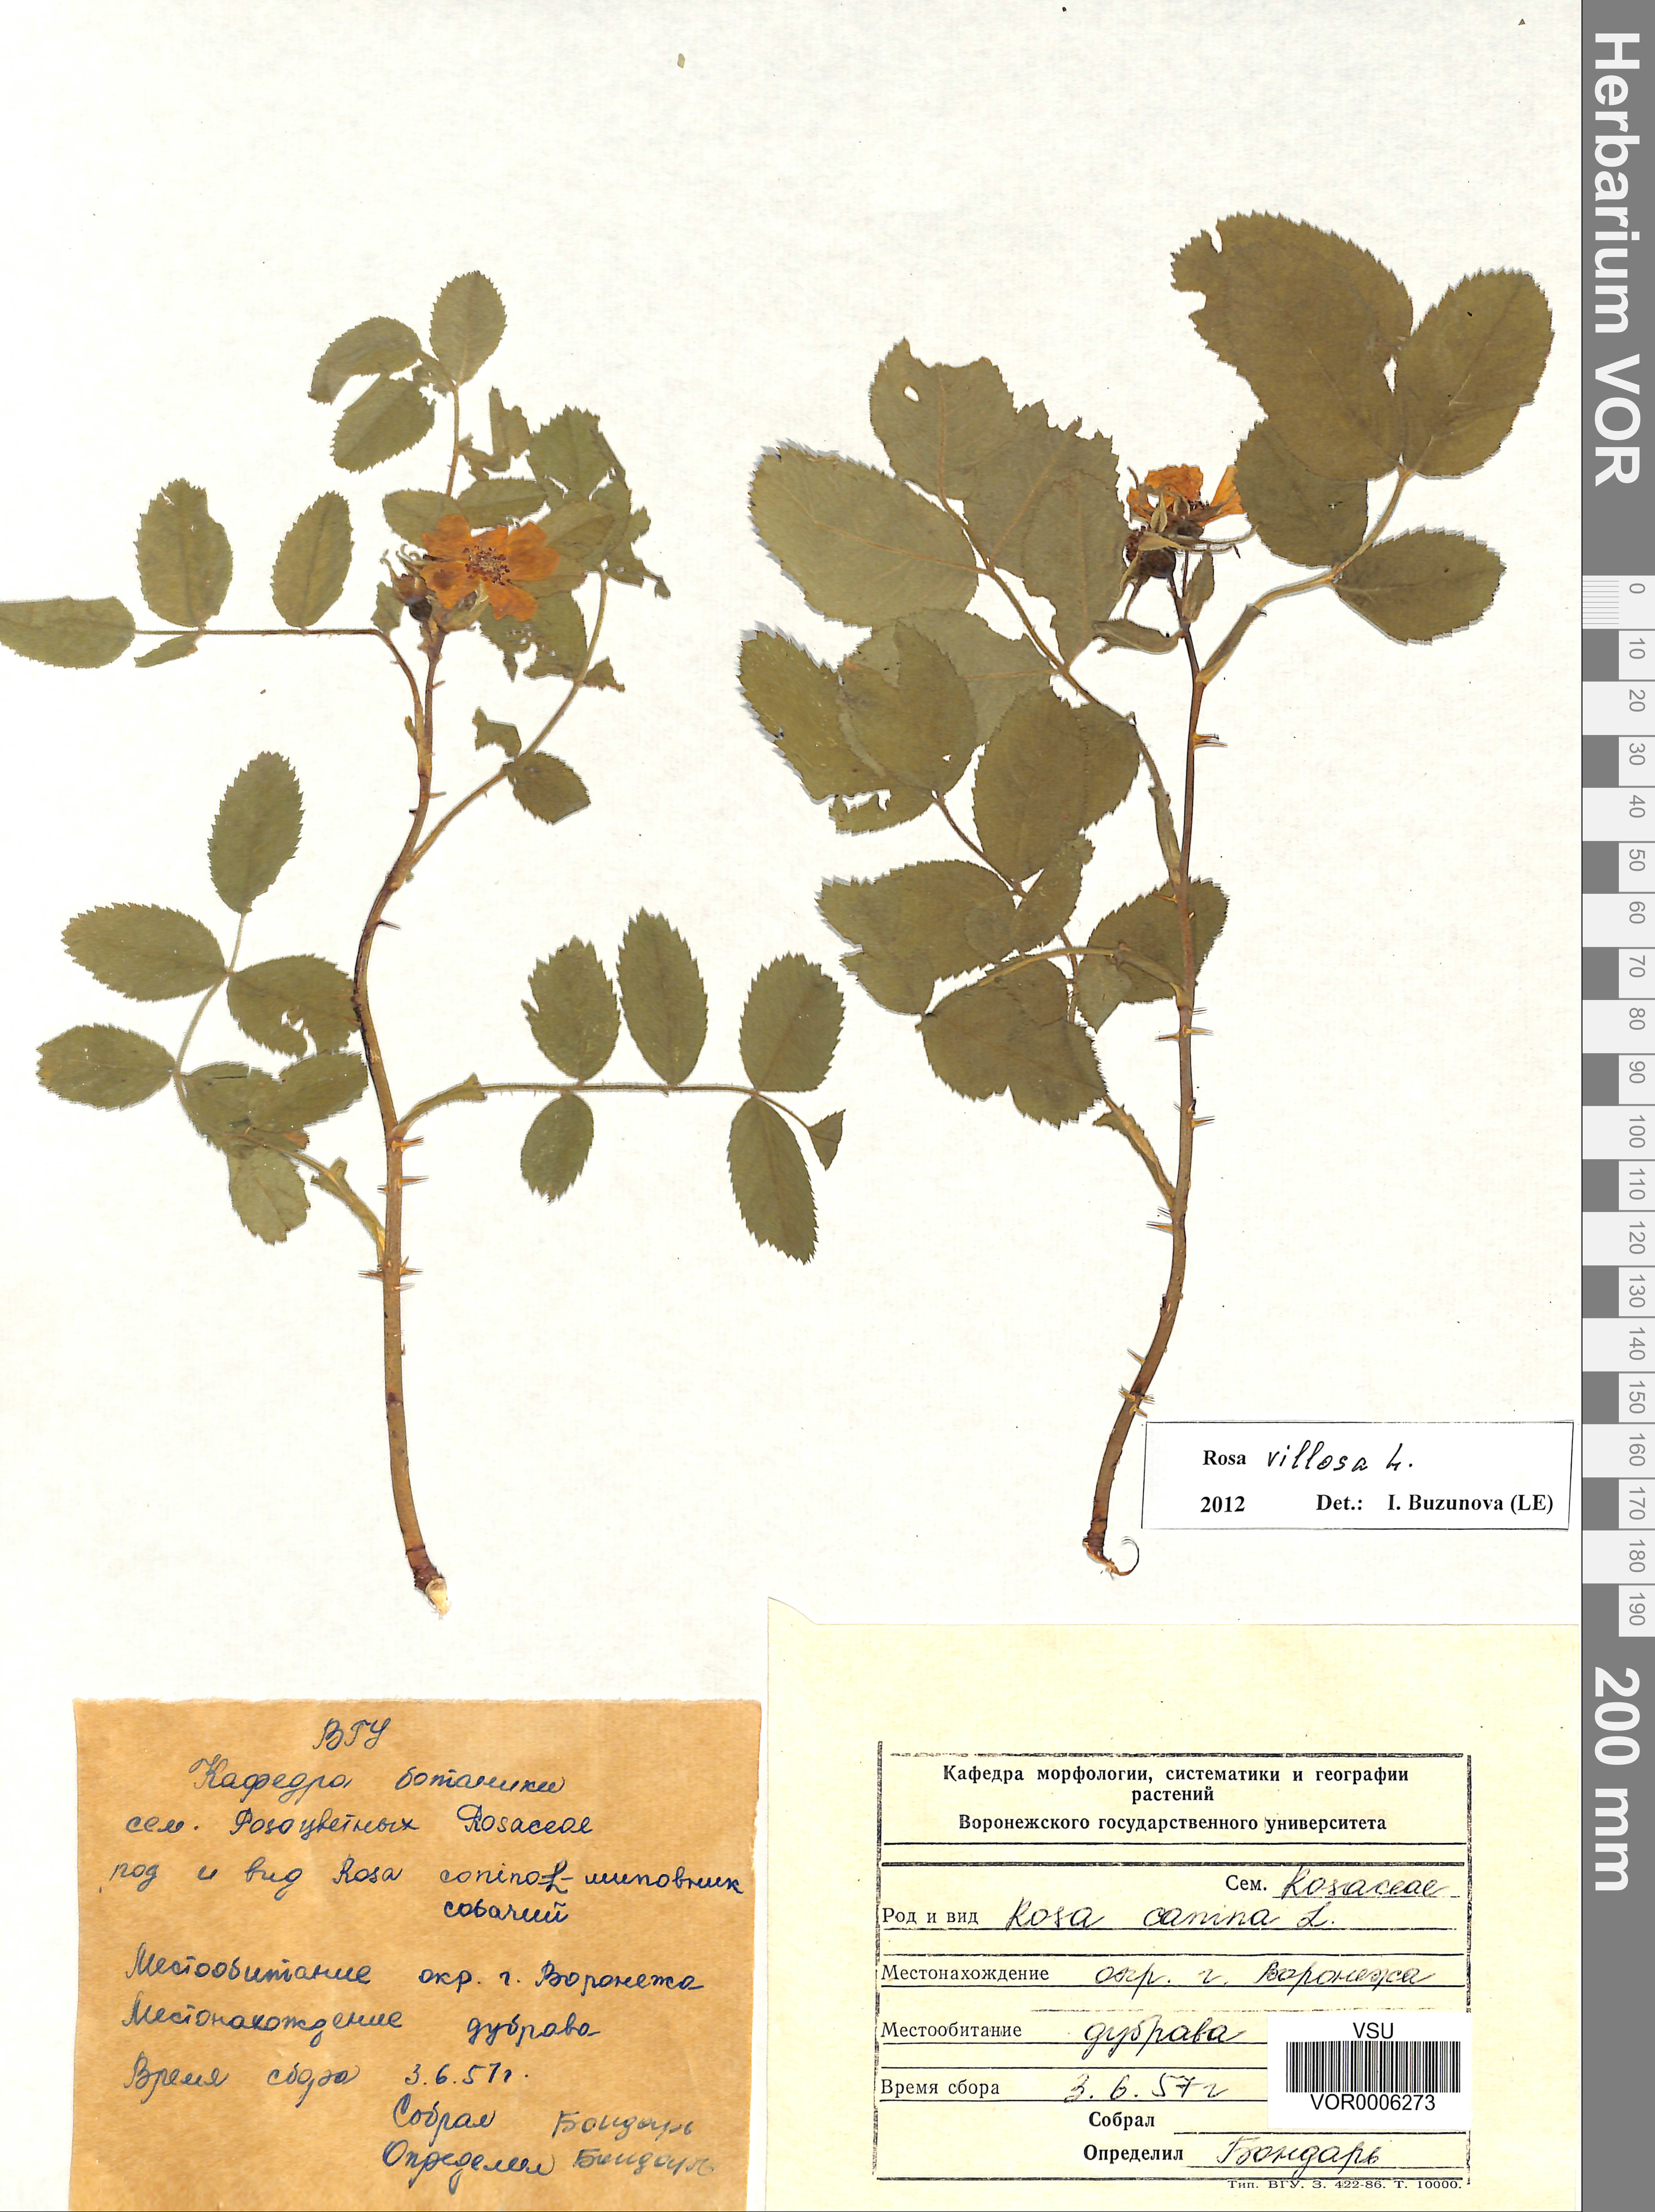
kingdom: Plantae
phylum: Tracheophyta
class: Magnoliopsida
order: Rosales
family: Rosaceae
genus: Rosa
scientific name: Rosa villosa
